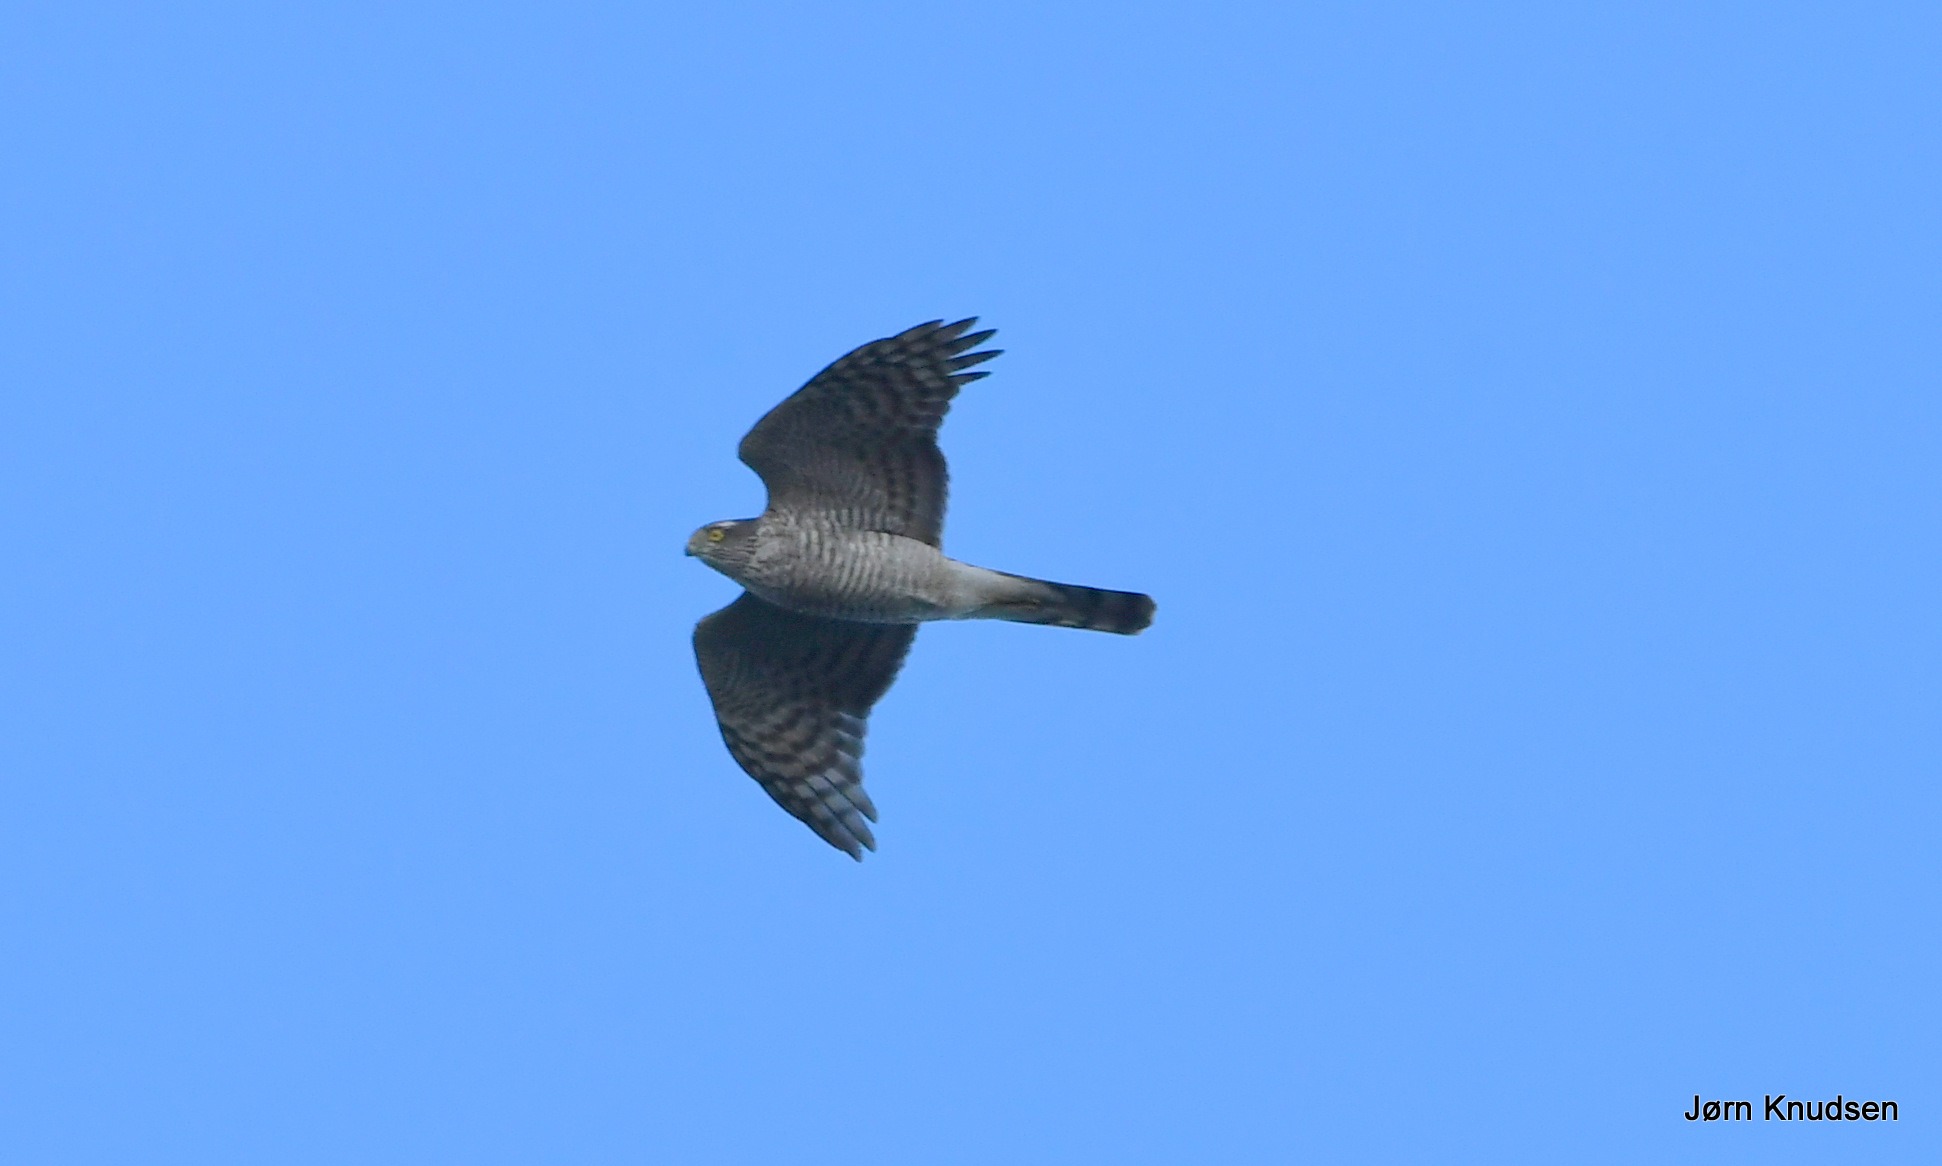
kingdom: Animalia
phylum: Chordata
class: Aves
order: Accipitriformes
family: Accipitridae
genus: Accipiter
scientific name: Accipiter nisus
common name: Spurvehøg
